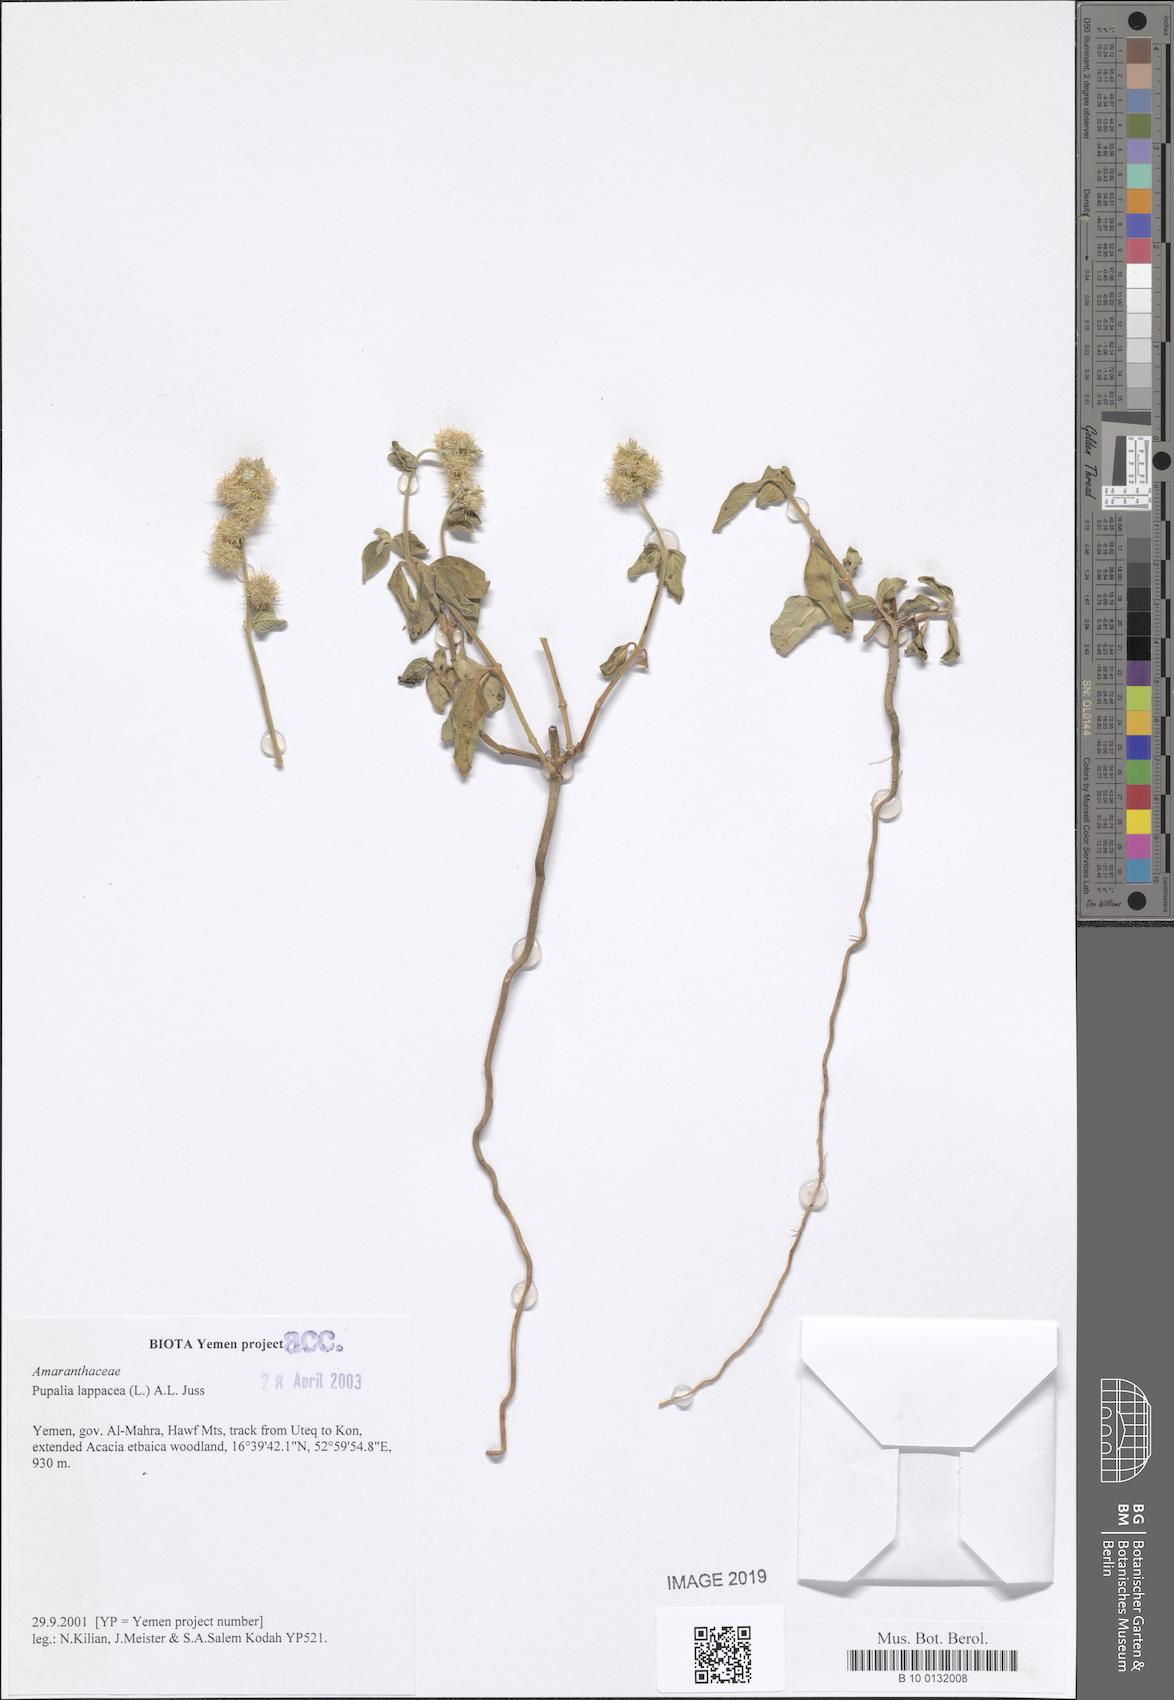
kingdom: Plantae
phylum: Tracheophyta
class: Magnoliopsida
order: Caryophyllales
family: Amaranthaceae
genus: Pupalia
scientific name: Pupalia lappacea
